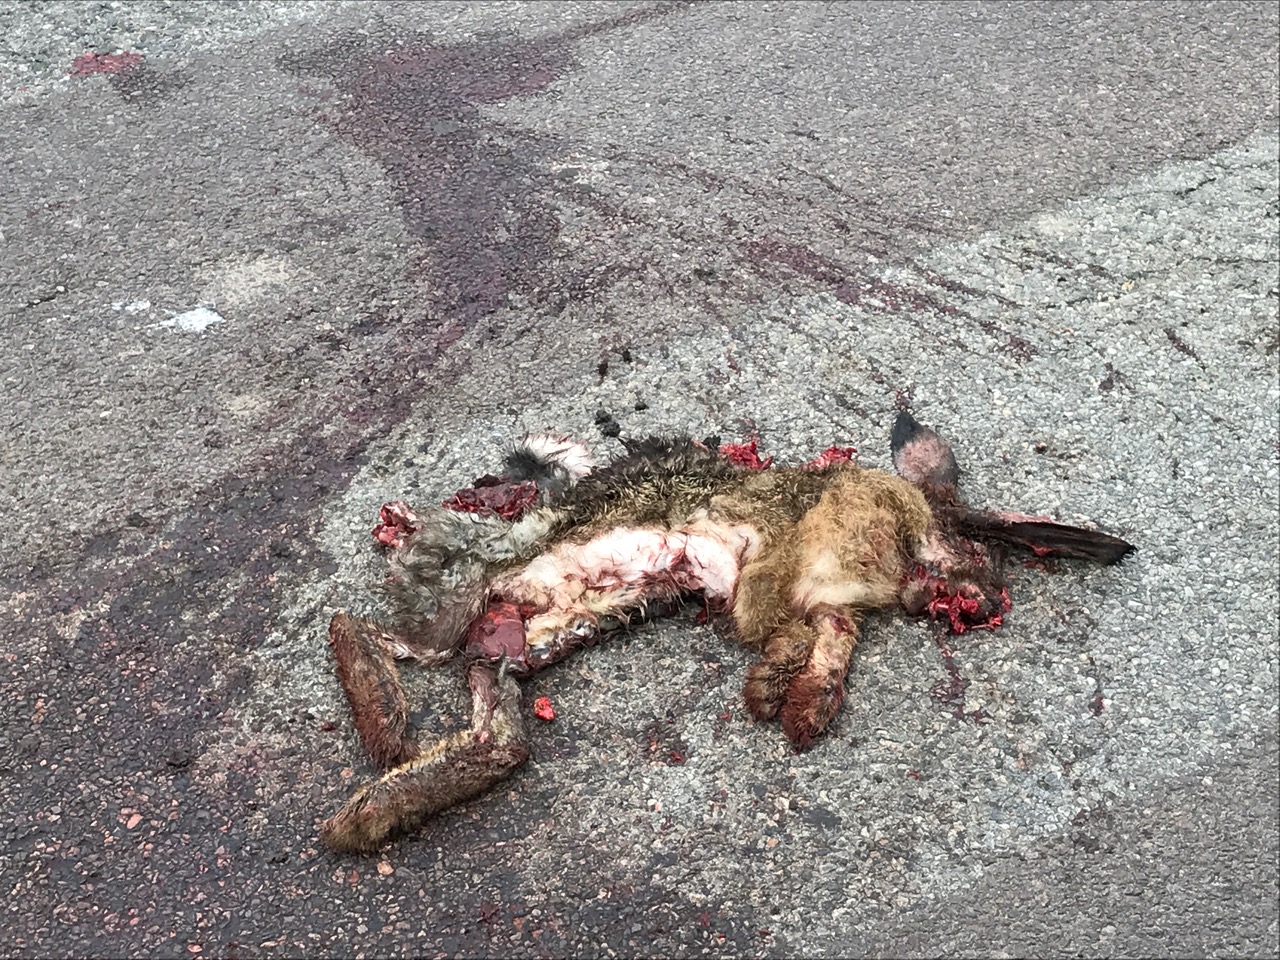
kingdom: Animalia
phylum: Chordata
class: Mammalia
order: Lagomorpha
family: Leporidae
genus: Lepus
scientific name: Lepus europaeus
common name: European hare
